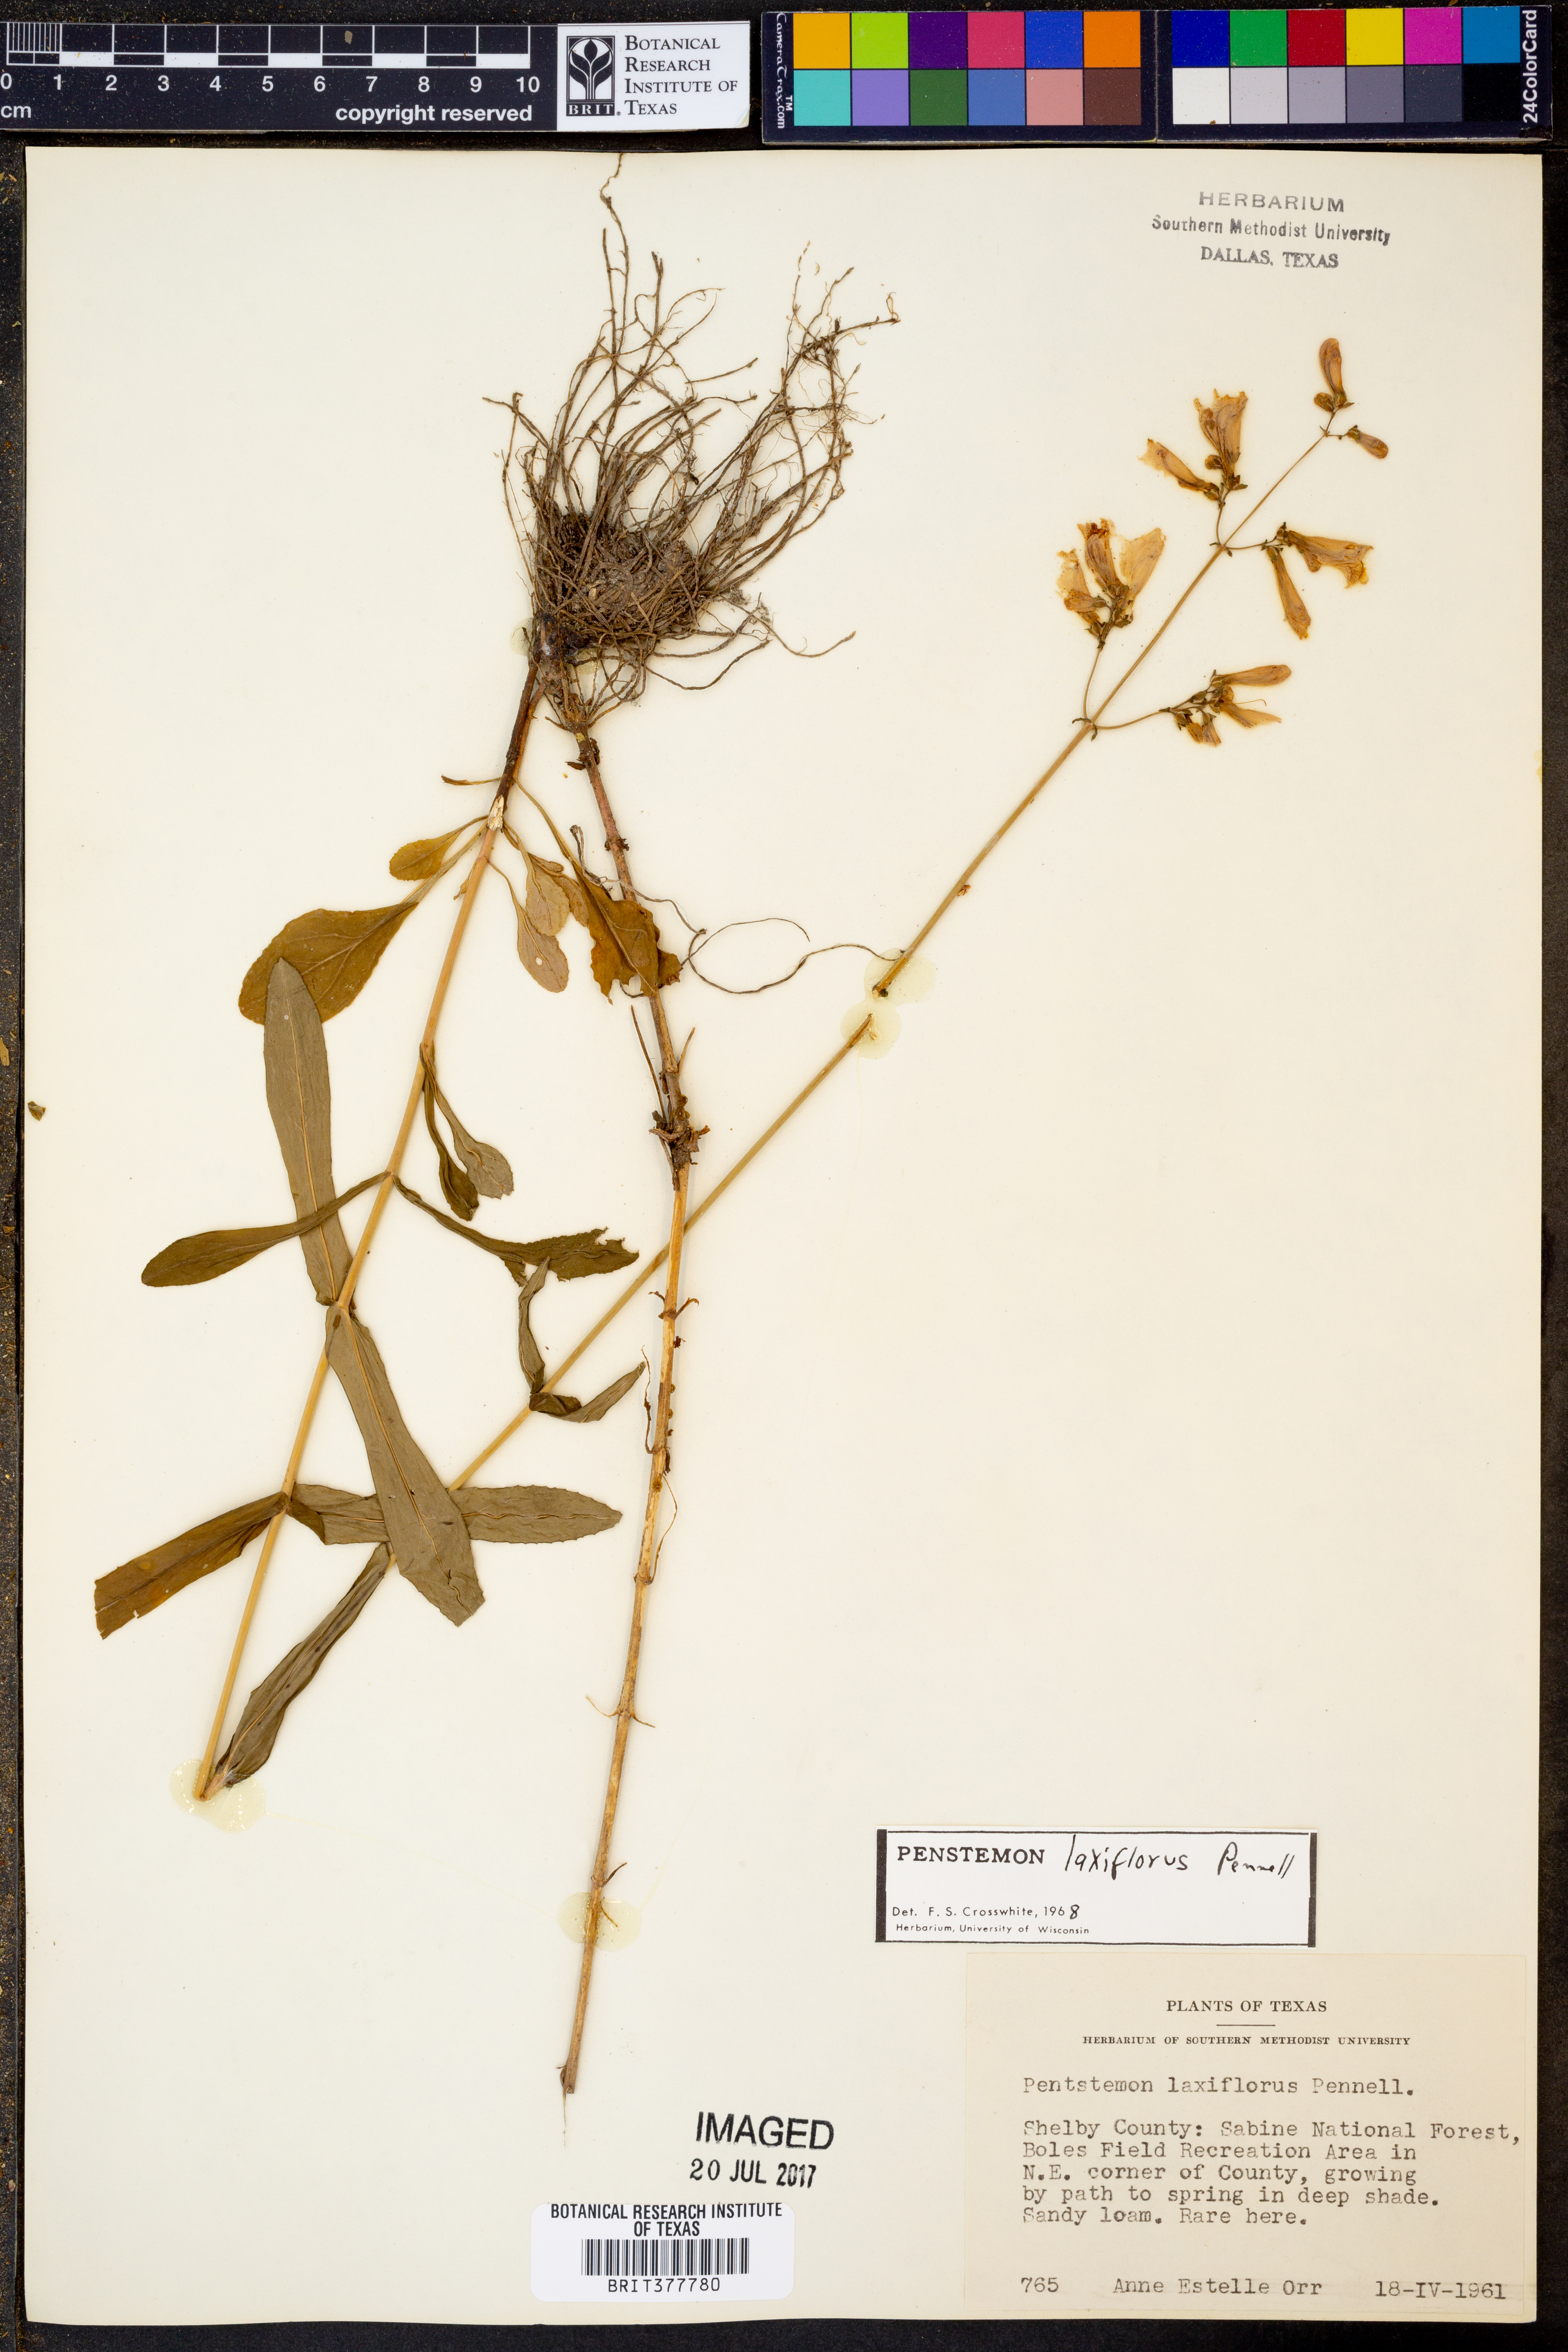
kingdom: Plantae
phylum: Tracheophyta
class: Magnoliopsida
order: Lamiales
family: Plantaginaceae
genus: Penstemon
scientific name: Penstemon laxiflorus
